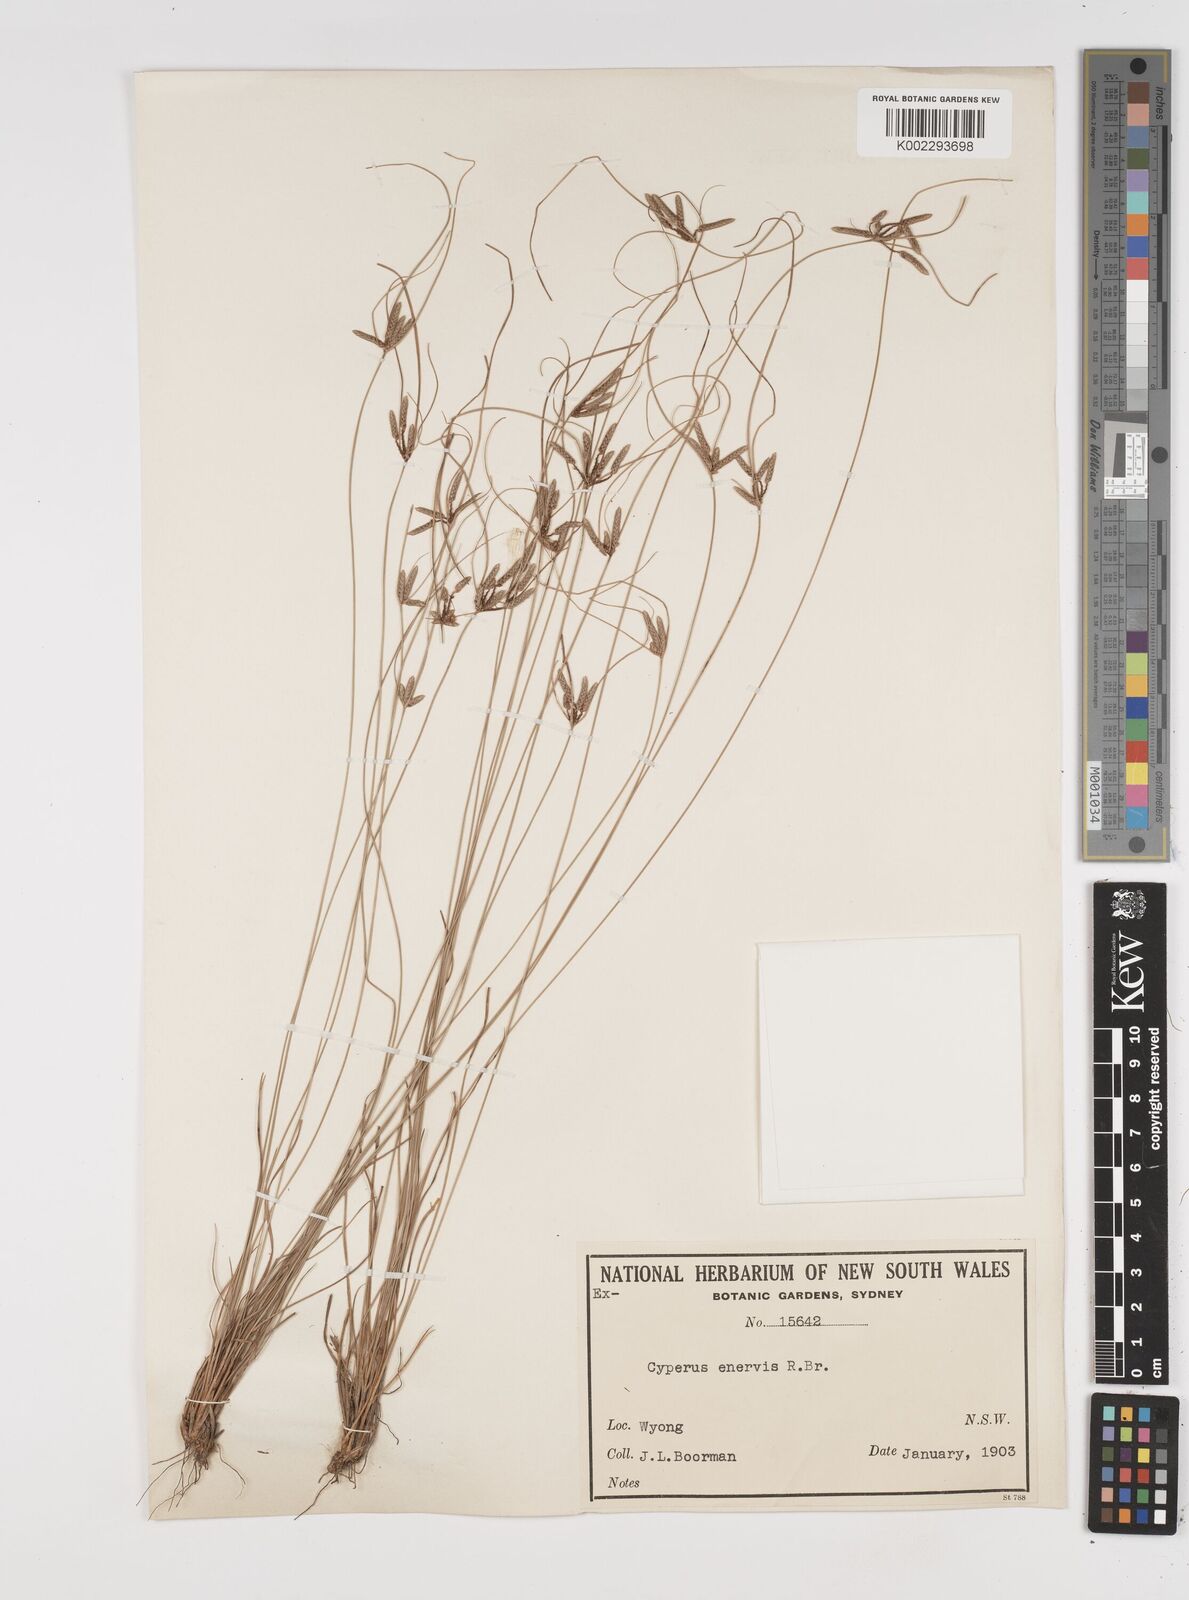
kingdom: Plantae
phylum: Tracheophyta
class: Liliopsida
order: Poales
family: Cyperaceae
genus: Cyperus
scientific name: Cyperus enervis
